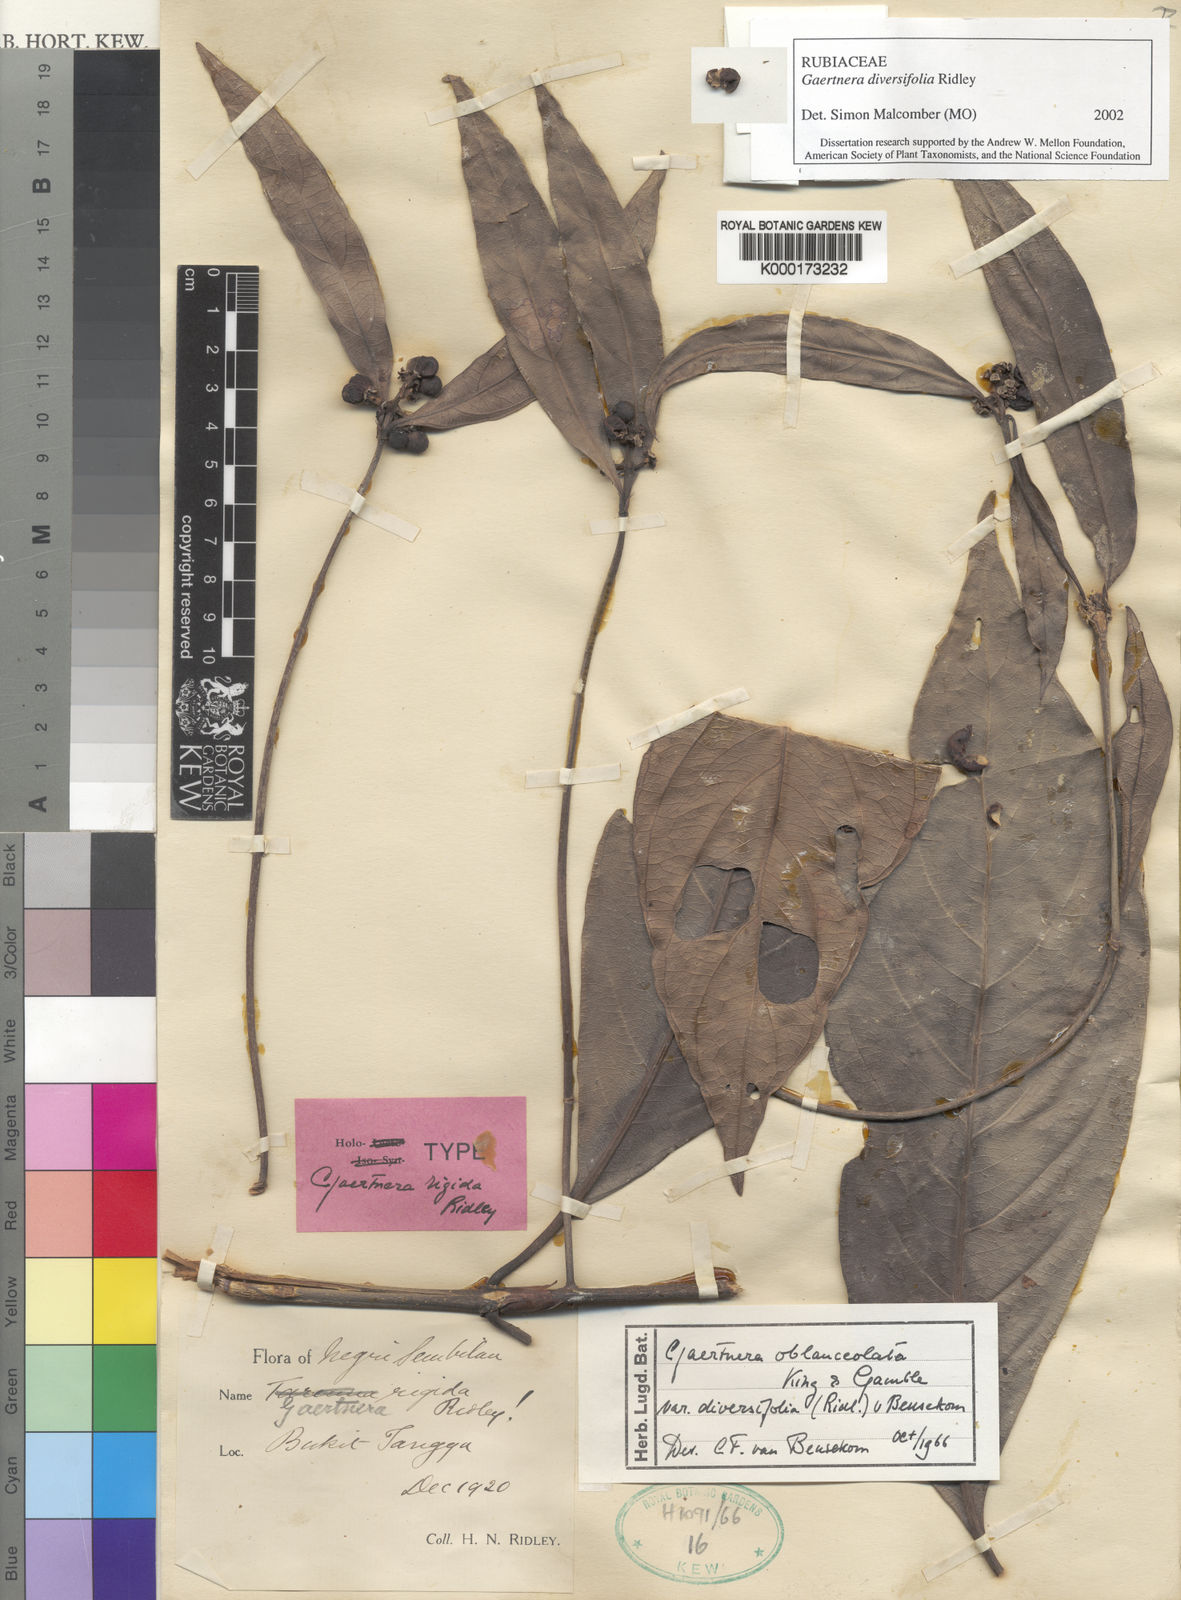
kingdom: Plantae
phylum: Tracheophyta
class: Magnoliopsida
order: Gentianales
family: Rubiaceae
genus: Gaertnera
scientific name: Gaertnera diversifolia
